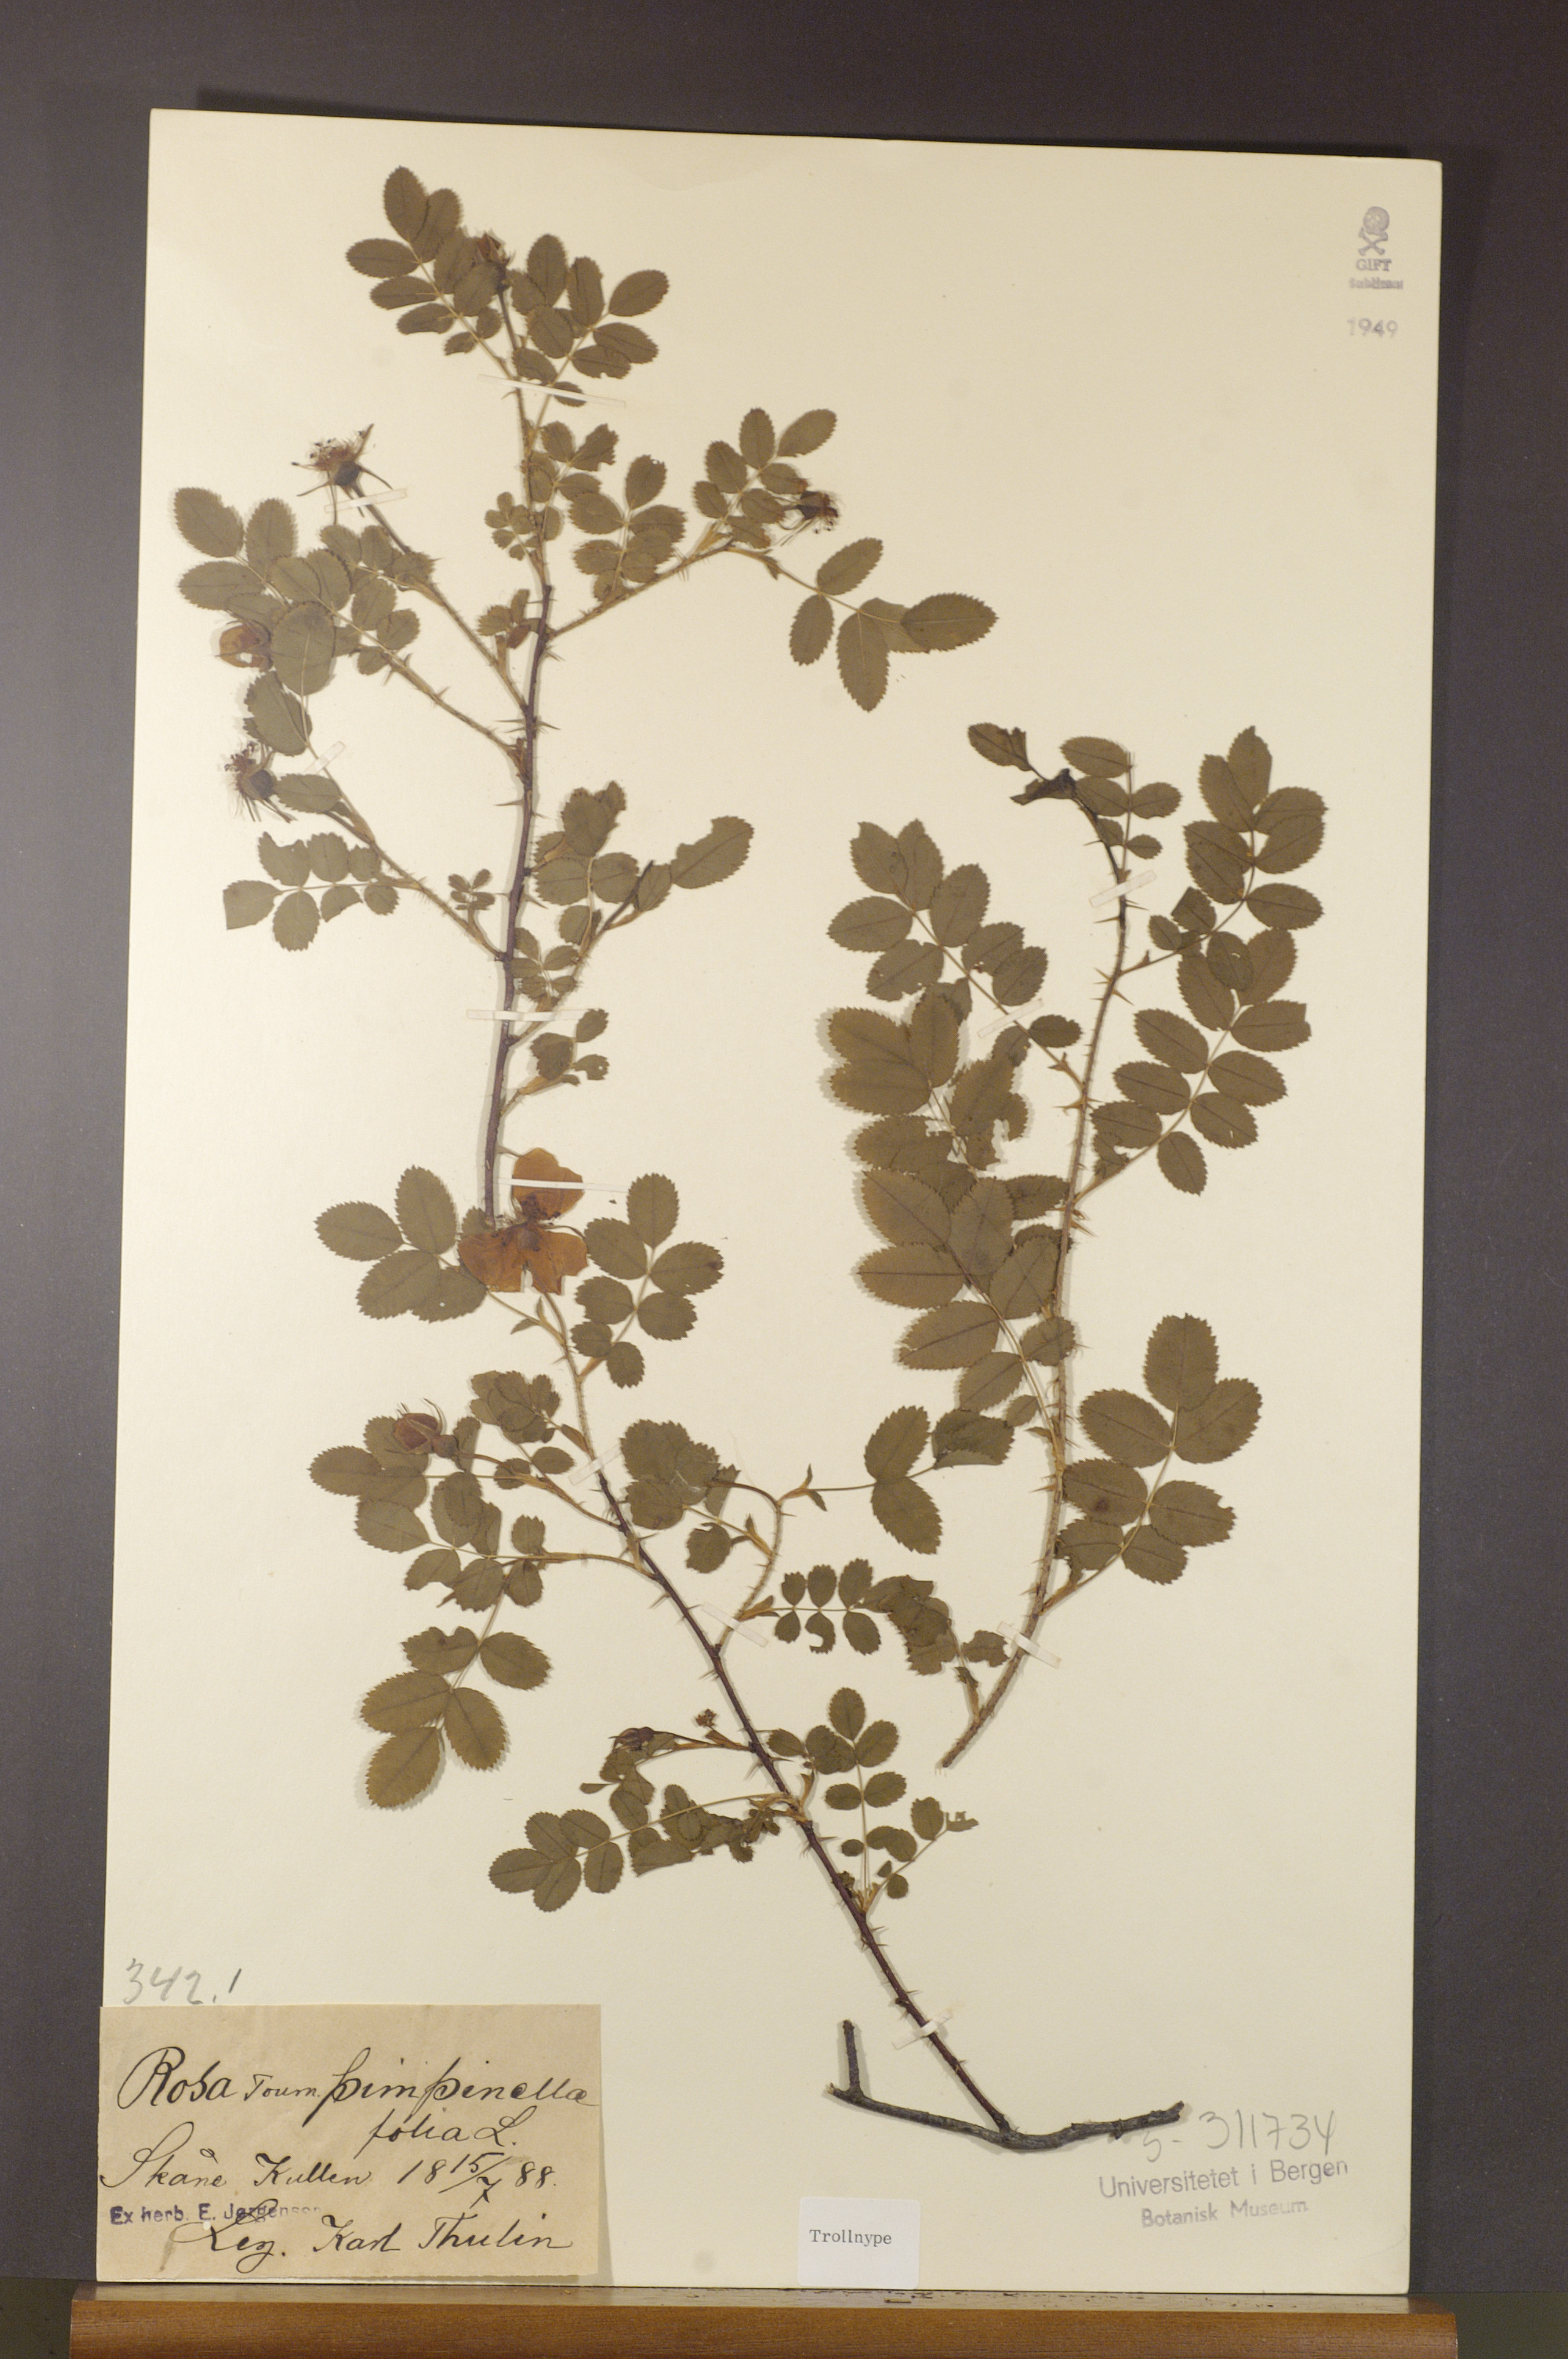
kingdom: Plantae
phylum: Tracheophyta
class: Magnoliopsida
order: Rosales
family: Rosaceae
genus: Rosa
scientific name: Rosa spinosissima
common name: Burnet rose
